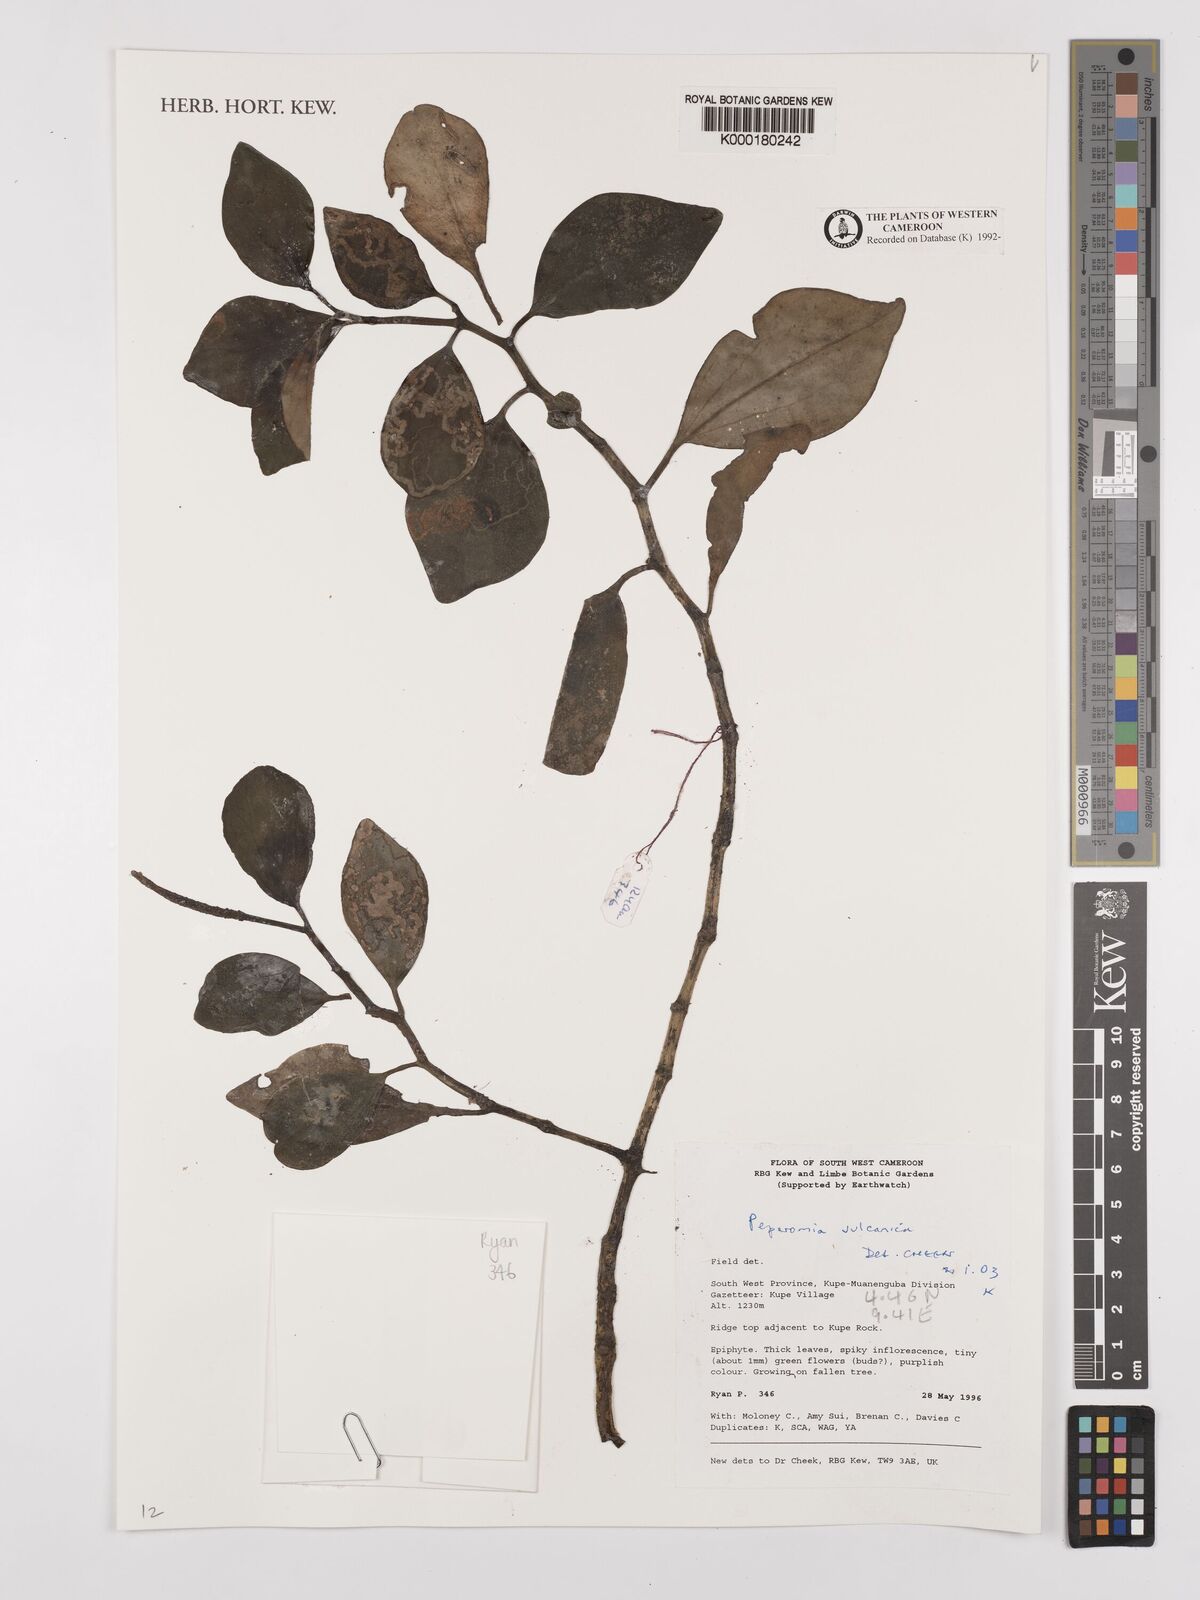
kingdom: Plantae
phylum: Tracheophyta
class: Magnoliopsida
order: Piperales
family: Piperaceae
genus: Peperomia
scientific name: Peperomia vulcanica
